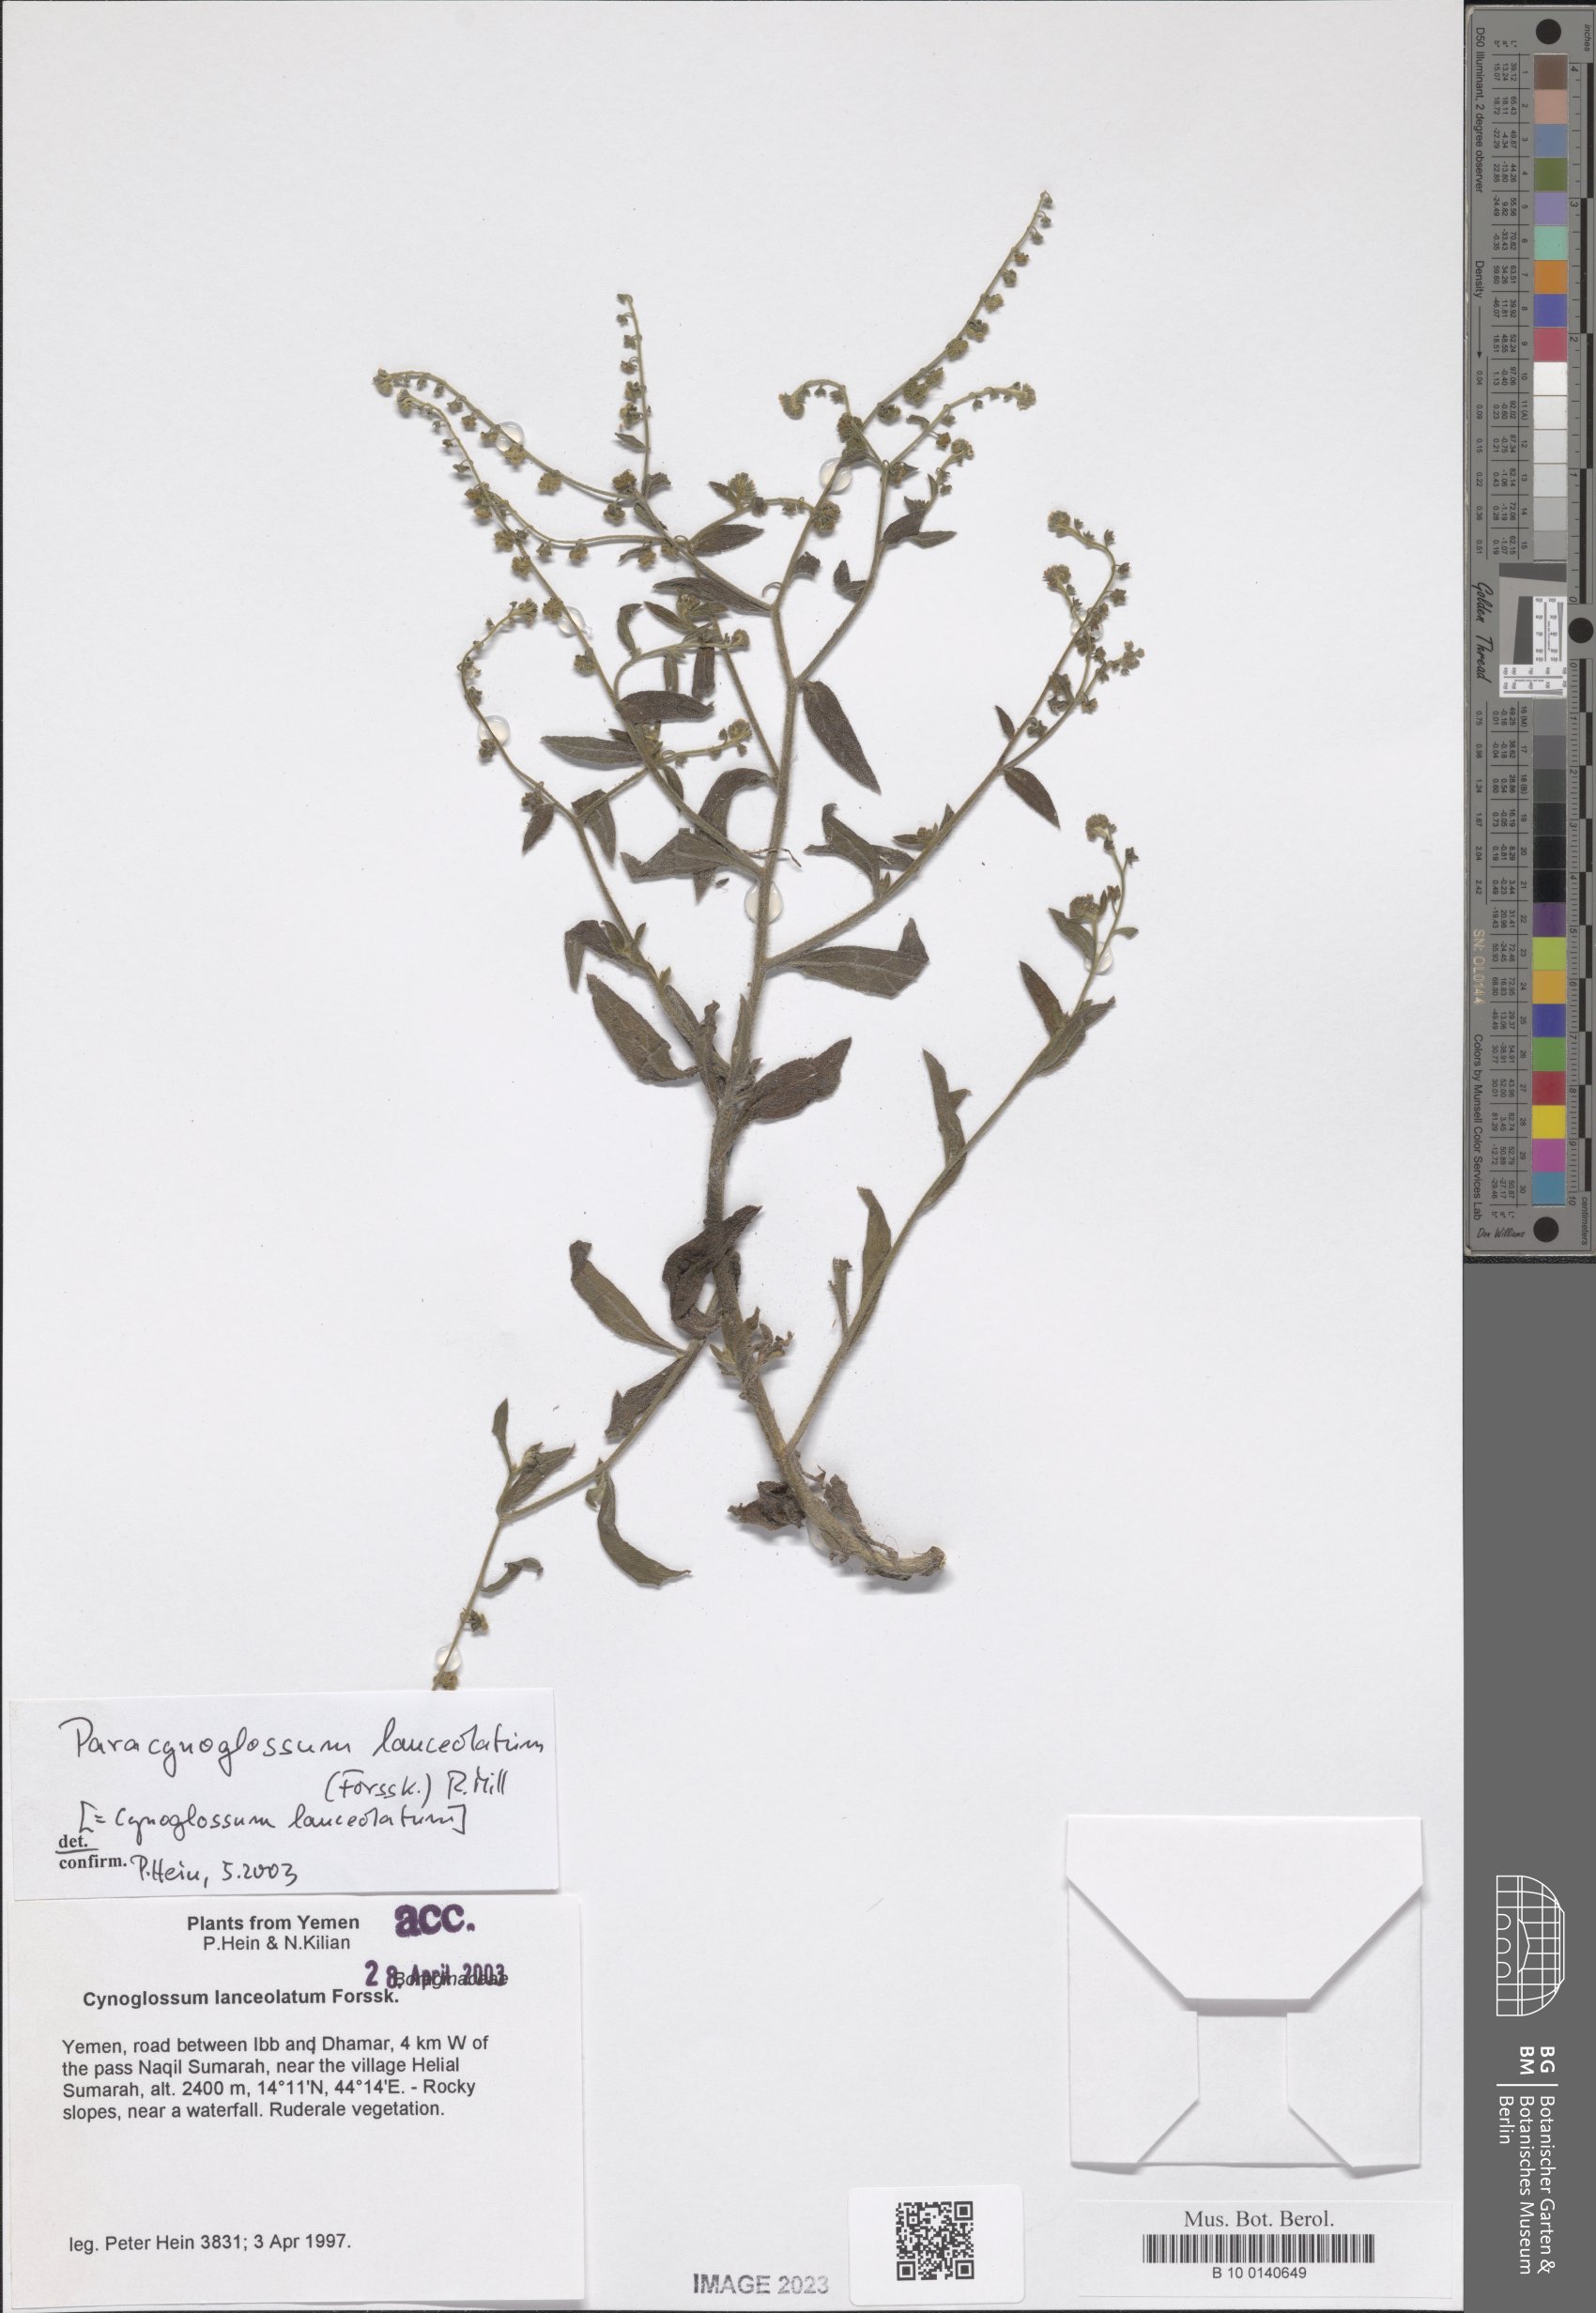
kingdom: Plantae
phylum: Tracheophyta
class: Magnoliopsida
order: Boraginales
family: Boraginaceae
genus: Paracynoglossum
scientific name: Paracynoglossum lanceolatum
